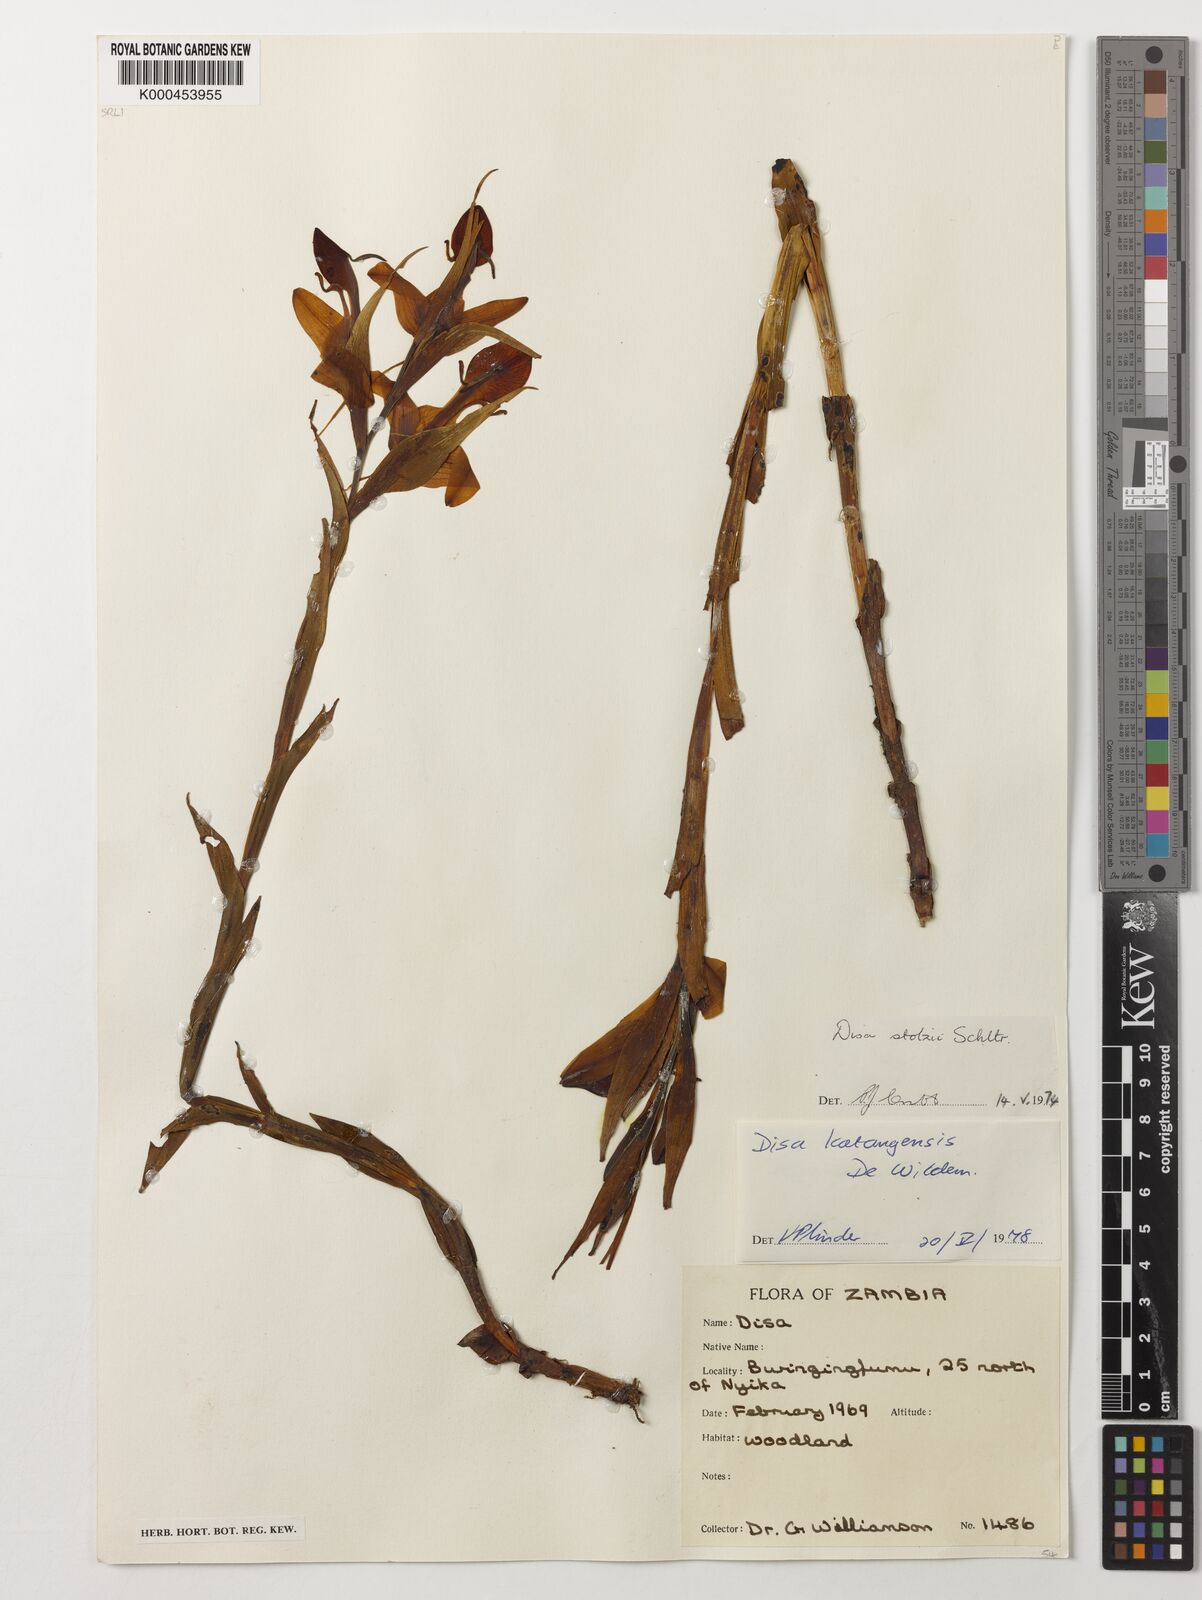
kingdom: Plantae
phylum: Tracheophyta
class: Liliopsida
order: Asparagales
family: Orchidaceae
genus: Disa
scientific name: Disa katangensis
